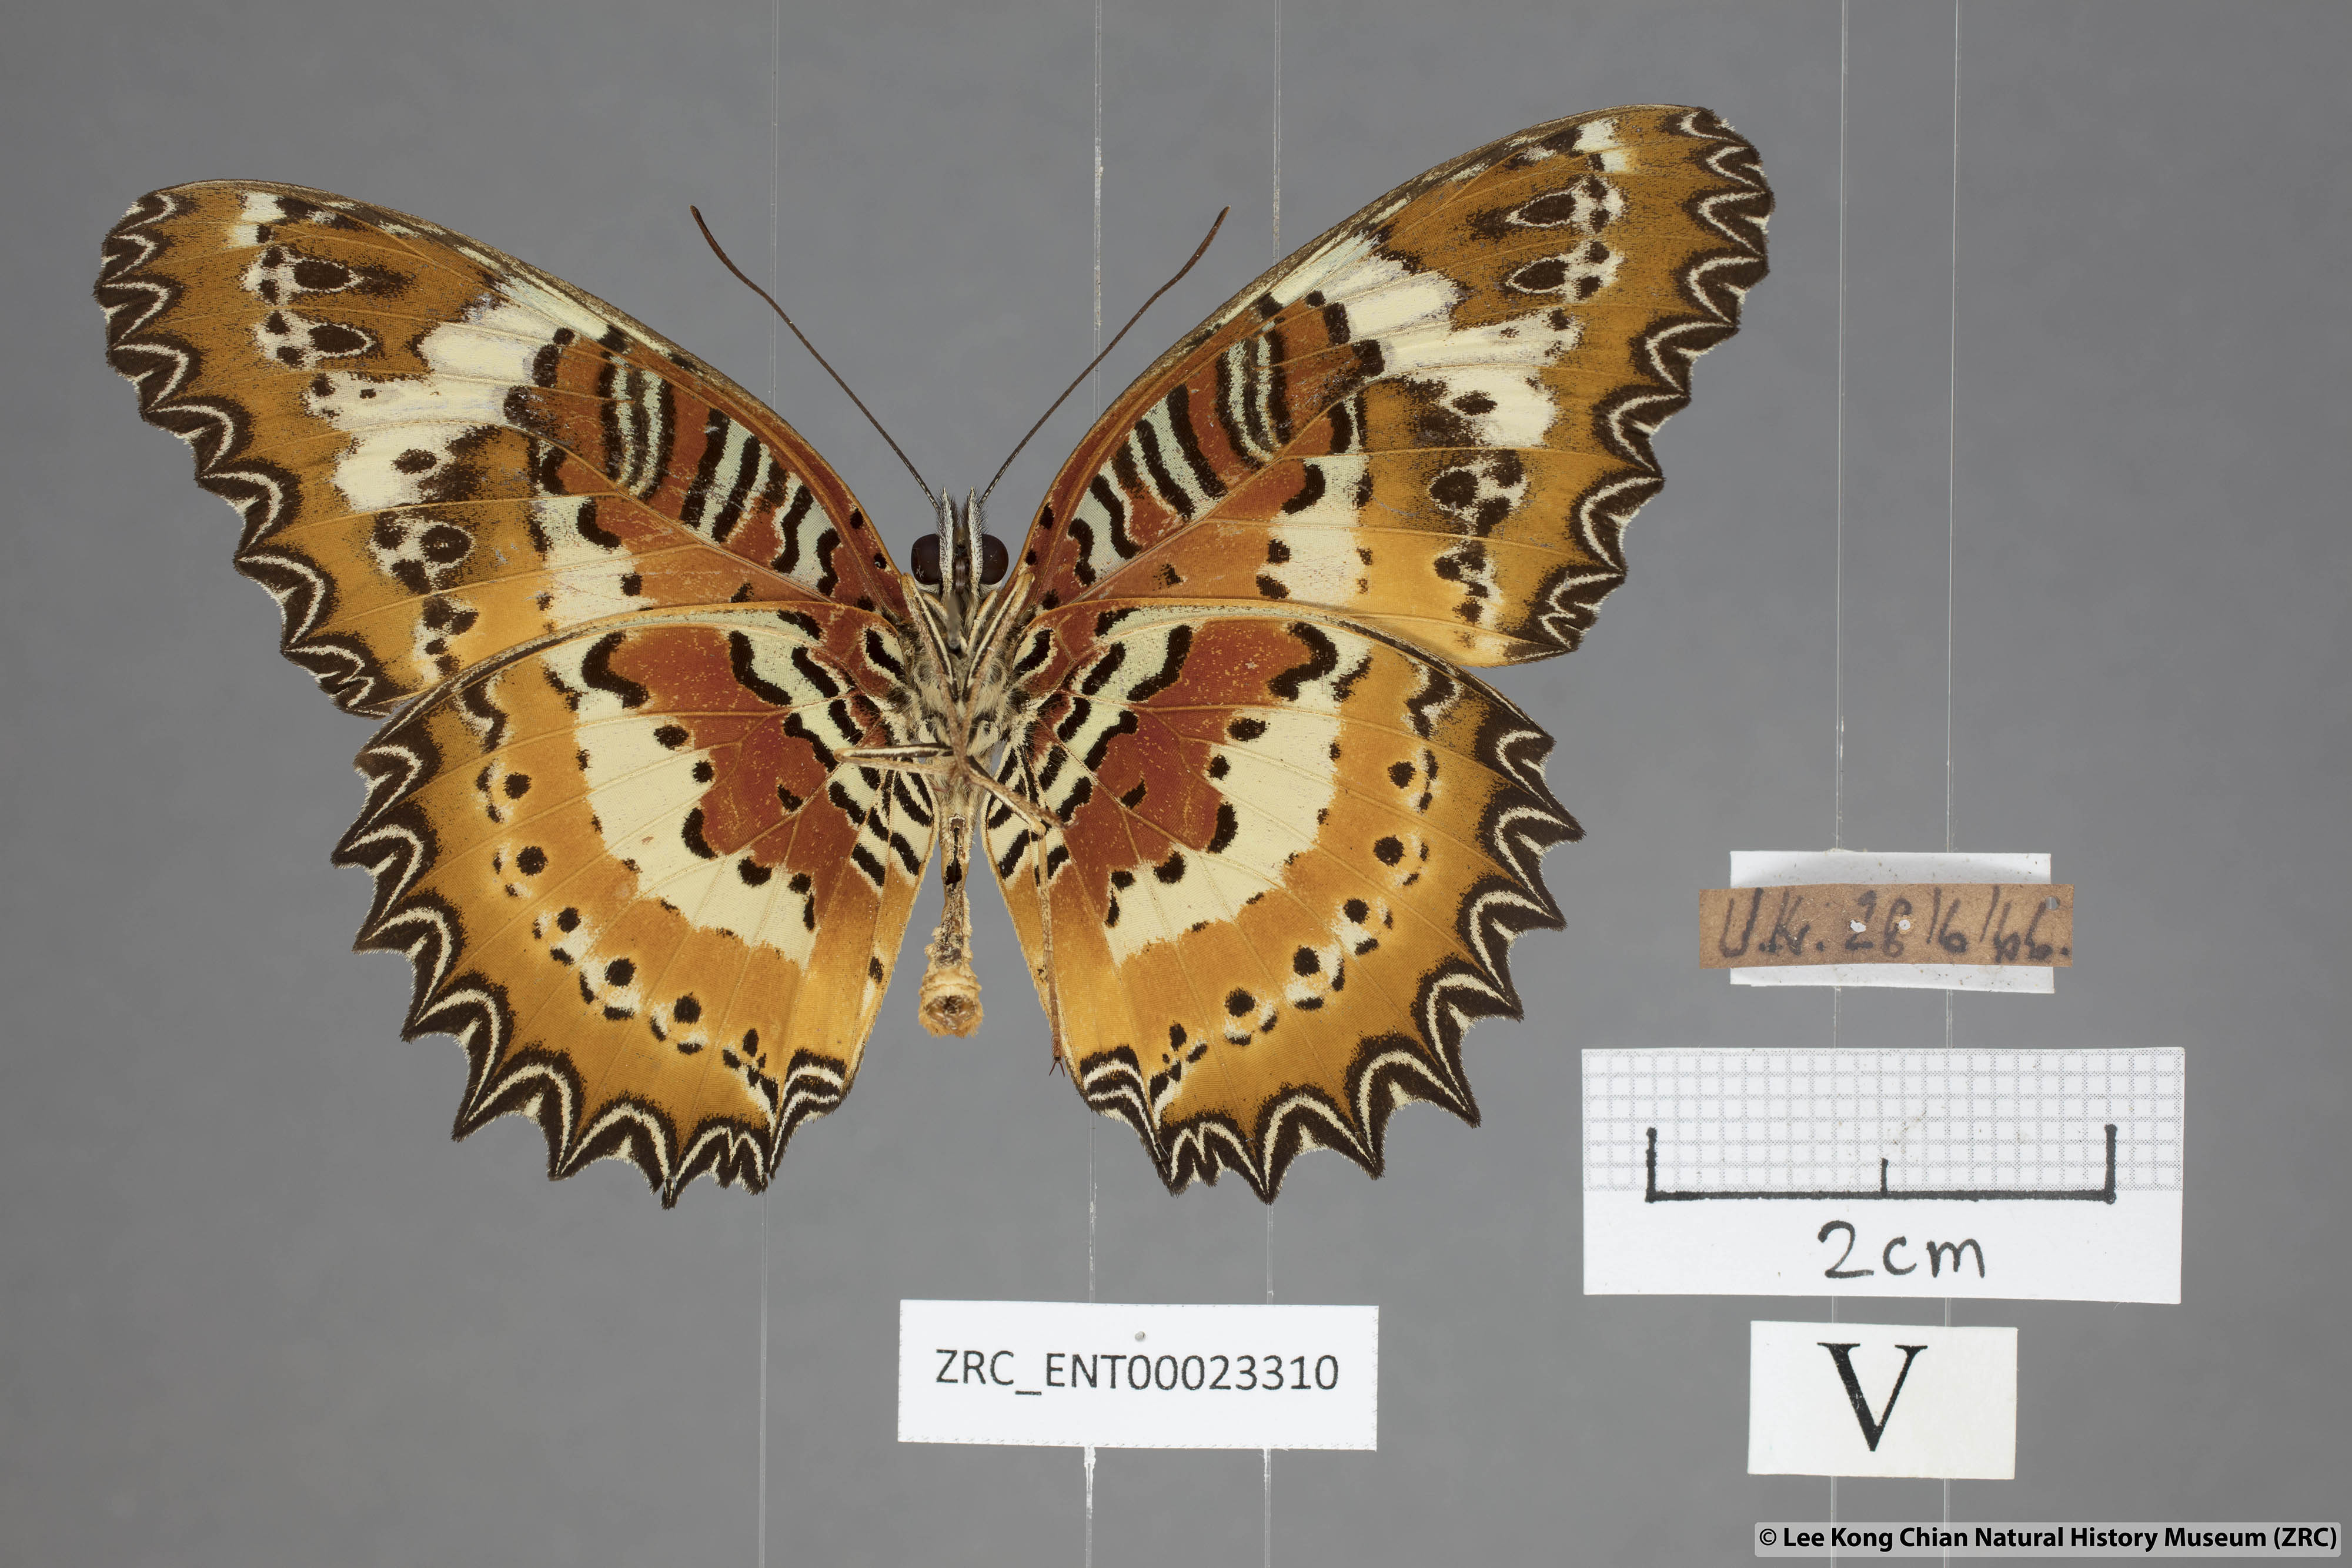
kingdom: Animalia
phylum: Arthropoda
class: Insecta
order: Lepidoptera
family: Nymphalidae
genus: Cethosia
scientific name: Cethosia penthesilea
